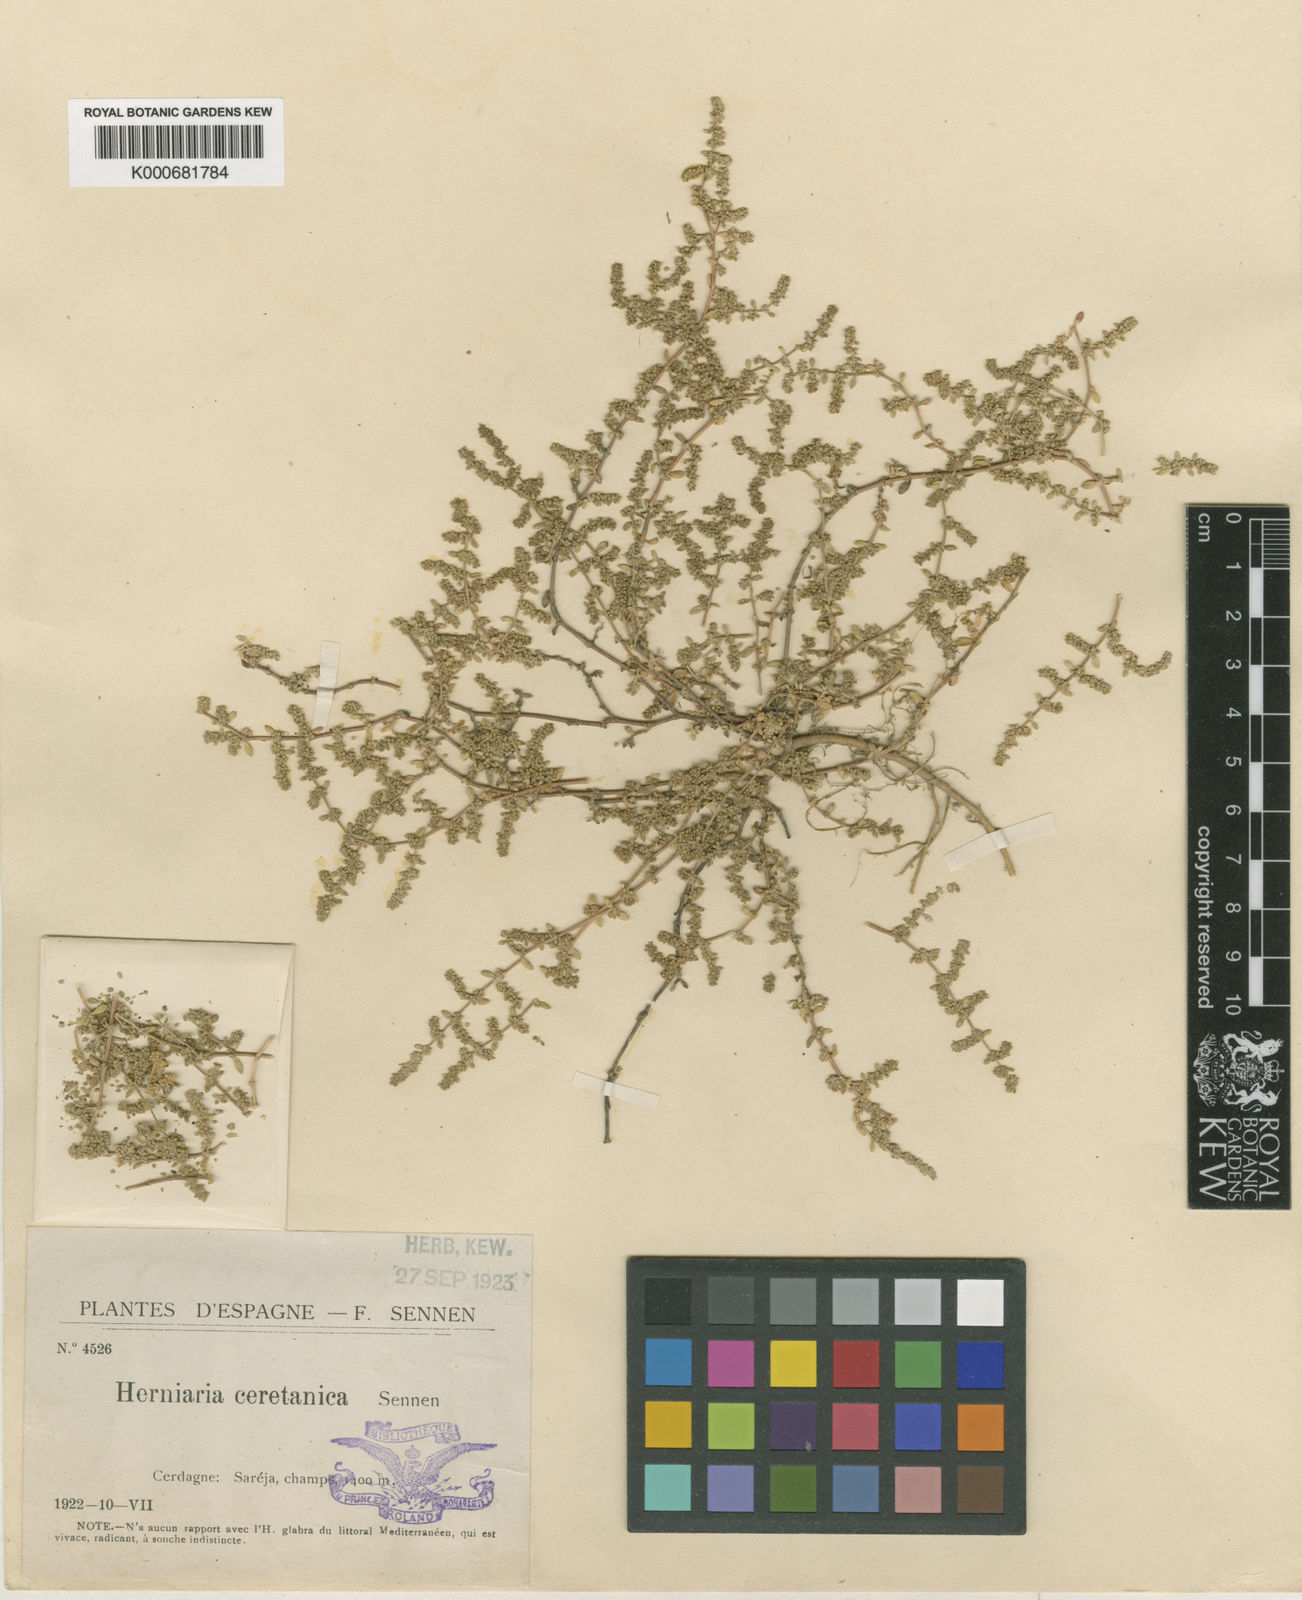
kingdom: Plantae
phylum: Tracheophyta
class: Magnoliopsida
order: Caryophyllales
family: Caryophyllaceae
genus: Herniaria
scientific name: Herniaria glabra
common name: Smooth rupturewort
